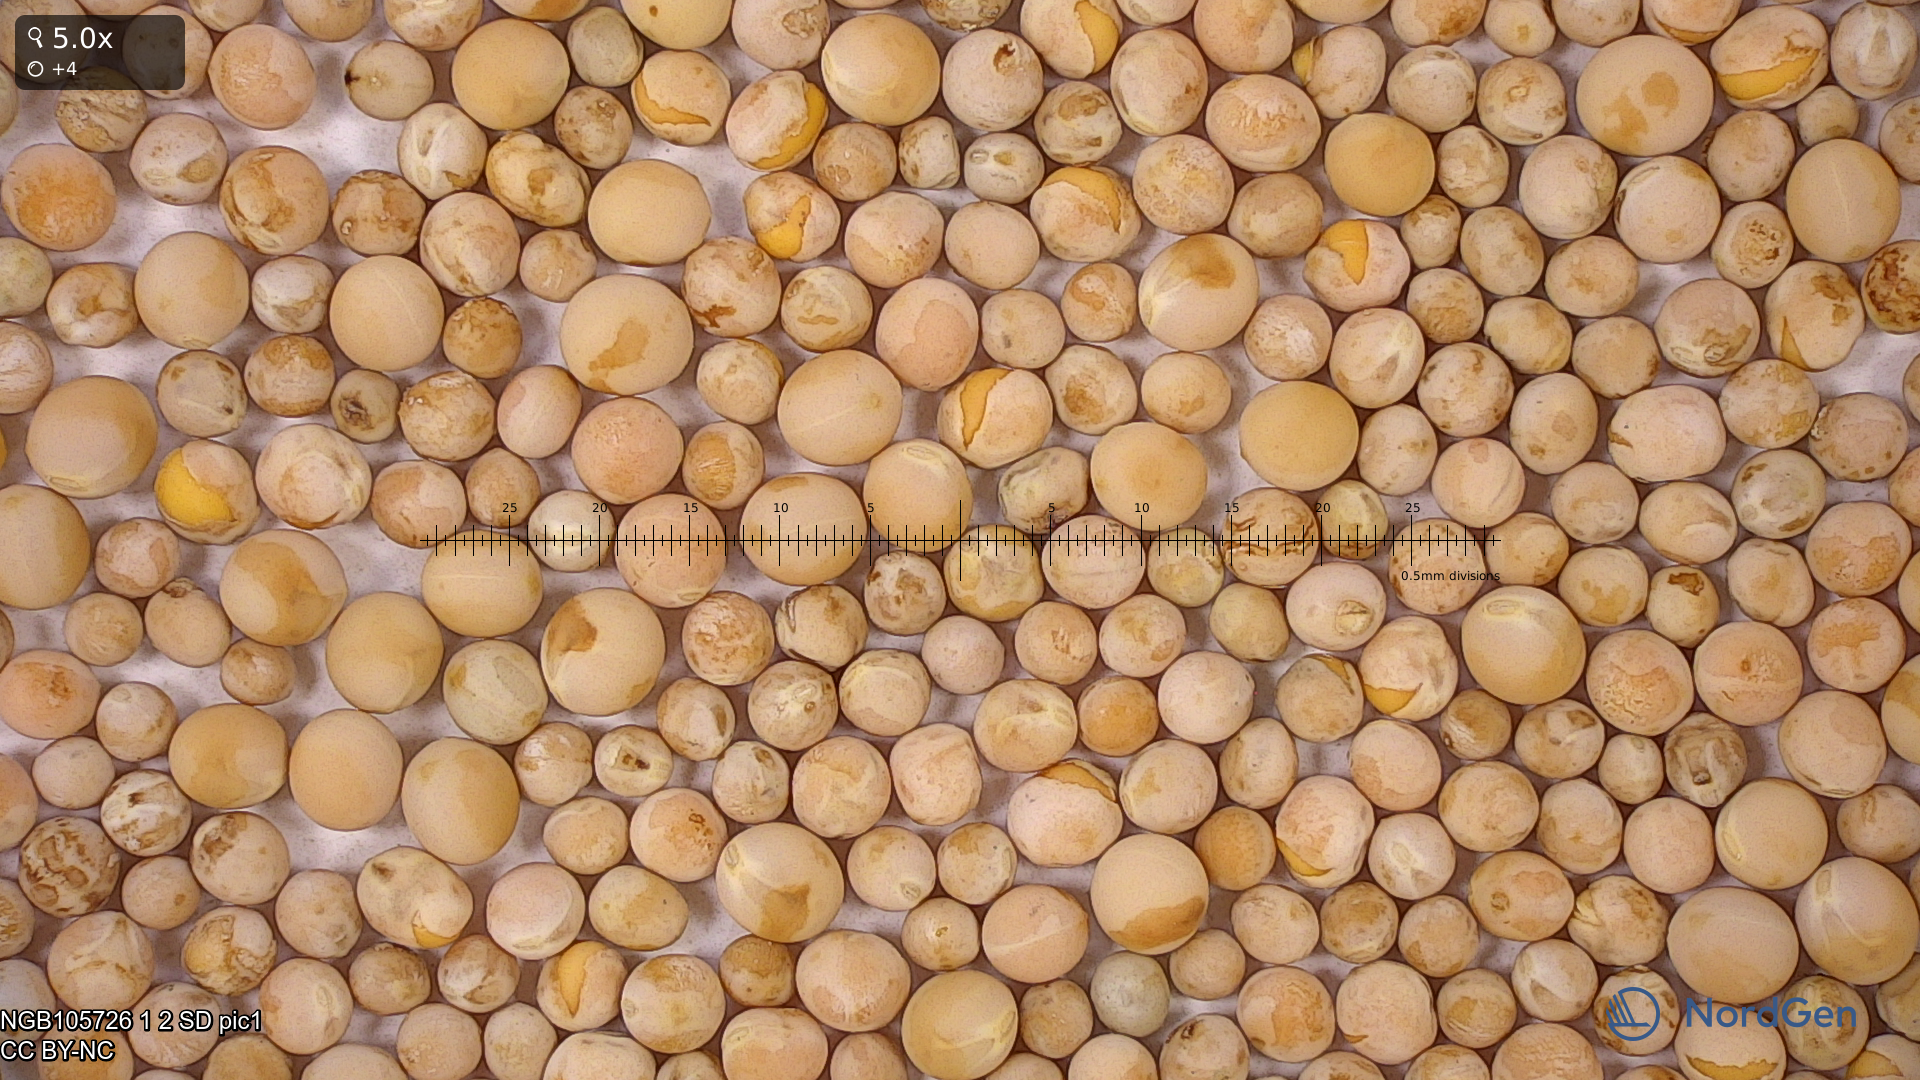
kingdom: Plantae
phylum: Tracheophyta
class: Magnoliopsida
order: Fabales
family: Fabaceae
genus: Lathyrus
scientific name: Lathyrus oleraceus
